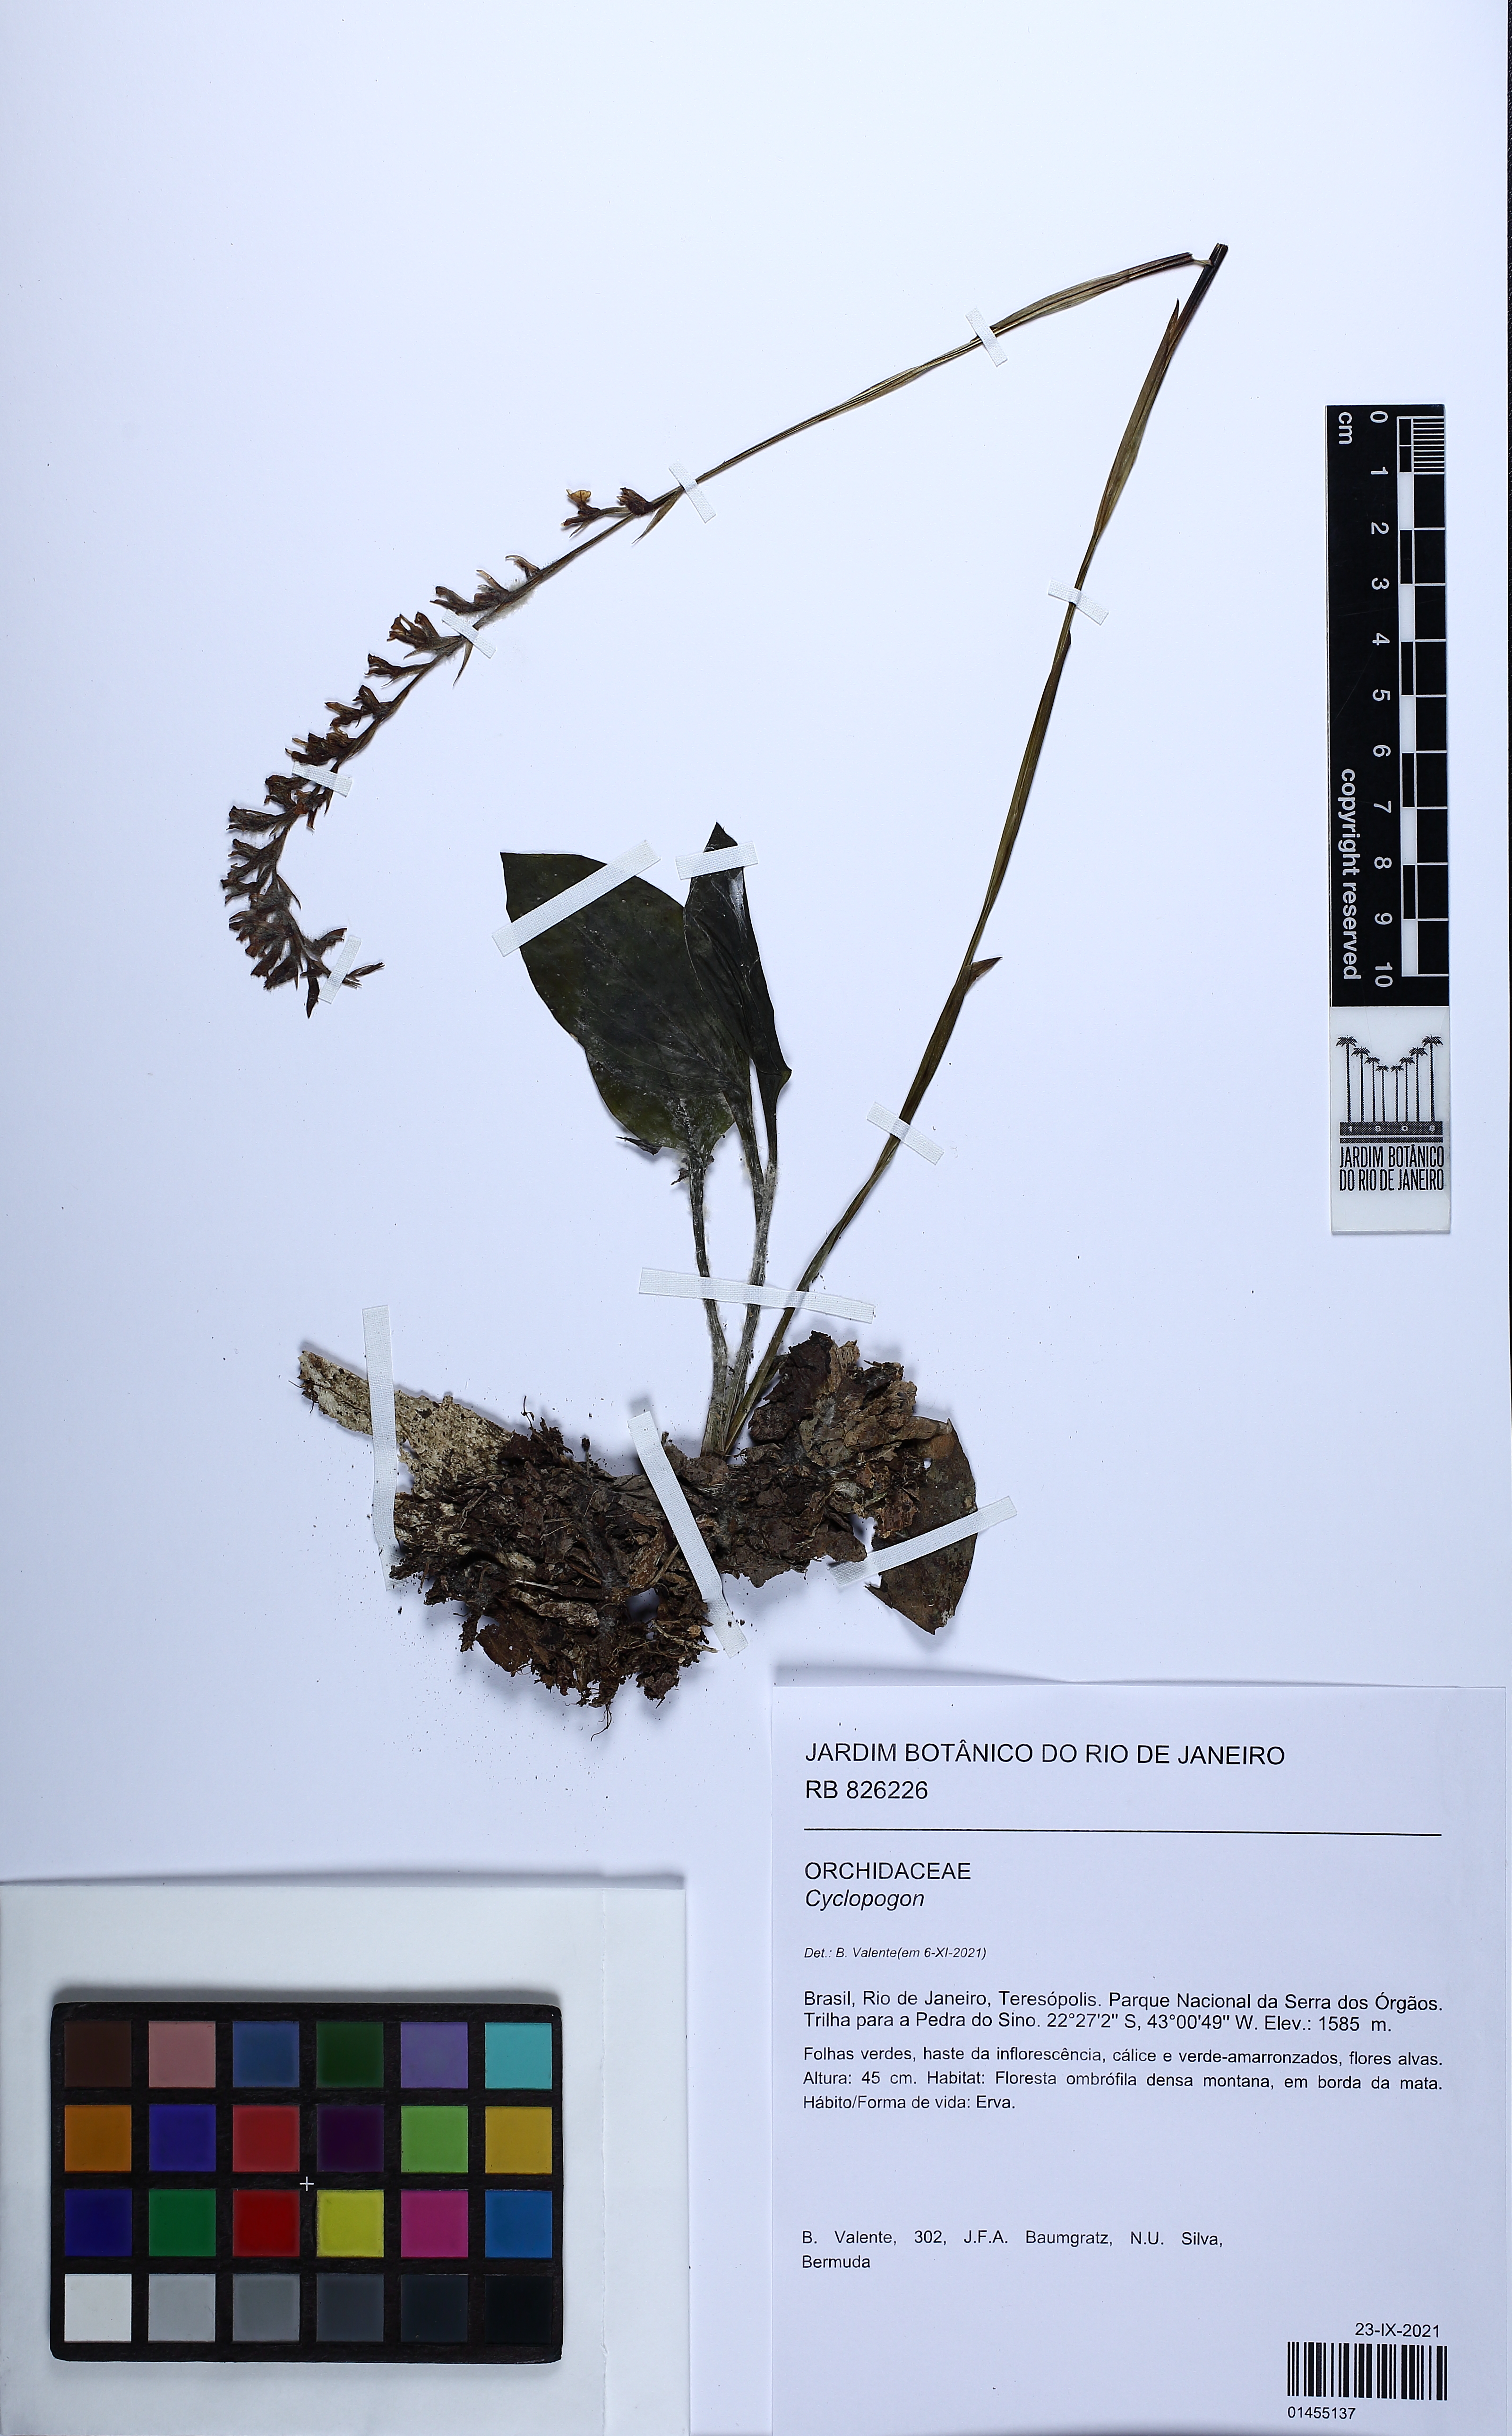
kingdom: Plantae
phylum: Tracheophyta
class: Liliopsida
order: Asparagales
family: Orchidaceae
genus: Cyclopogon
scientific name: Cyclopogon
